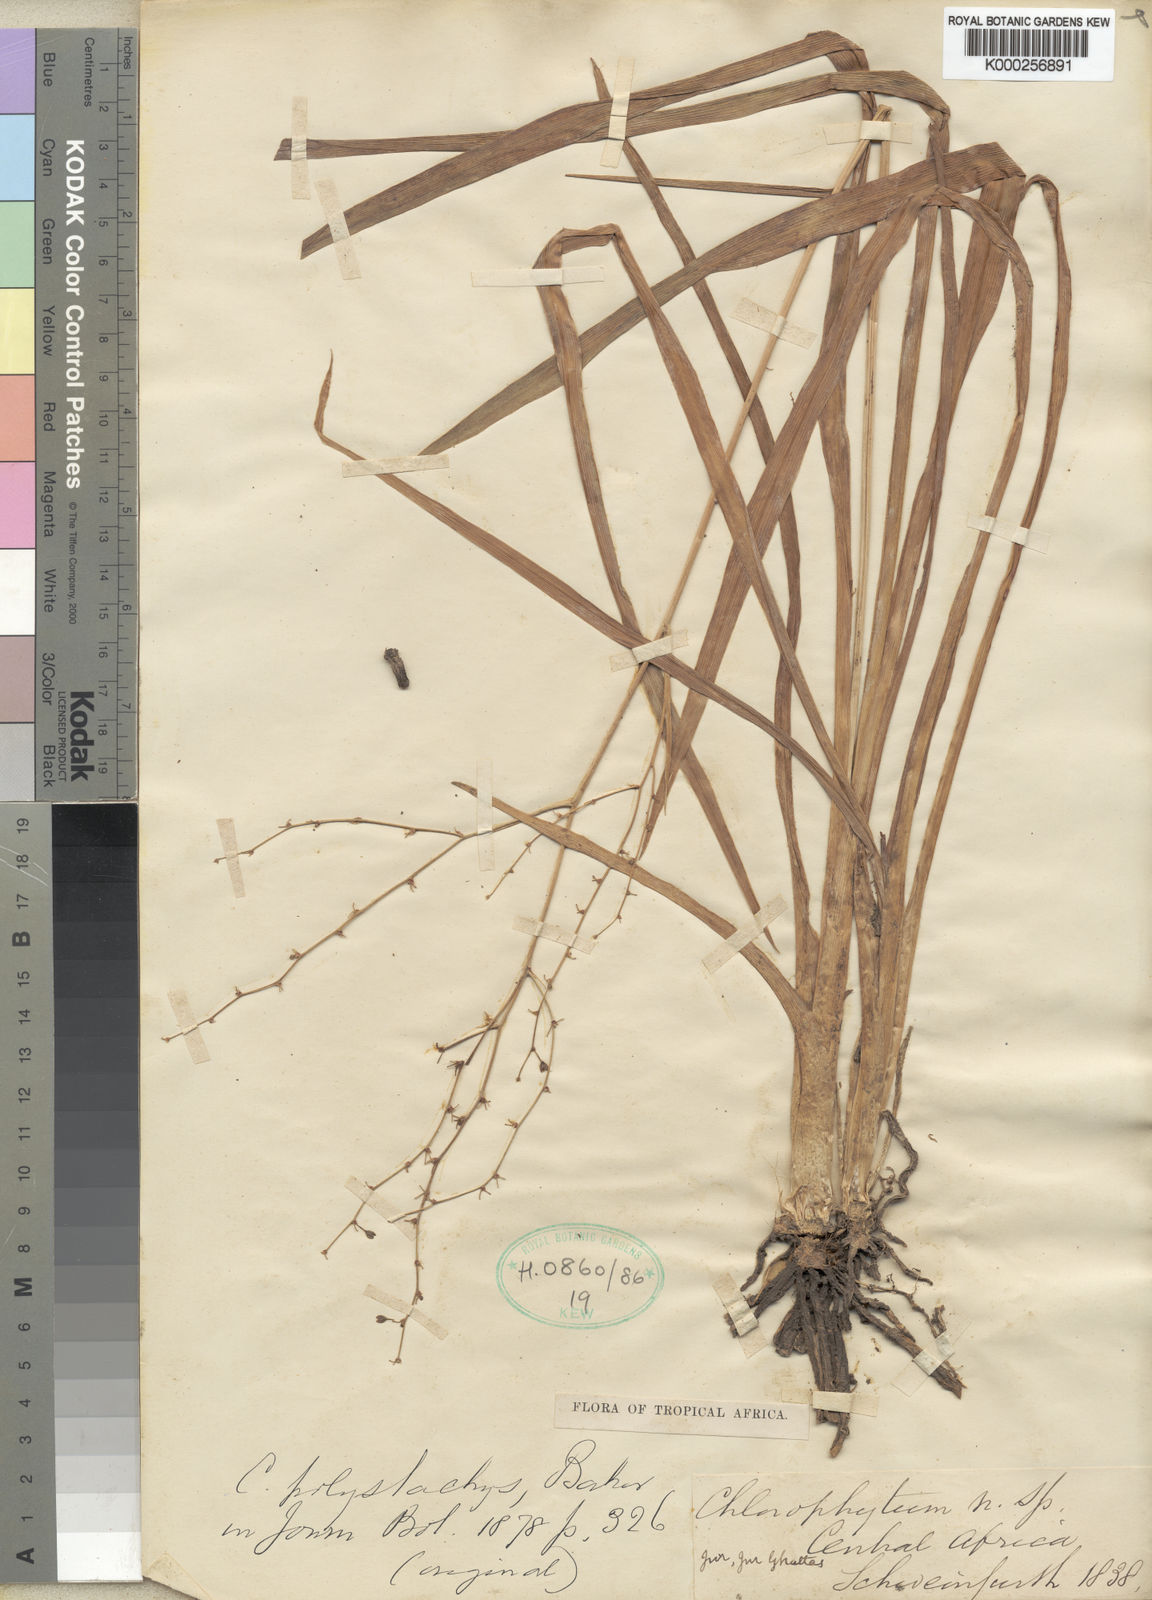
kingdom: Plantae
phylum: Tracheophyta
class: Liliopsida
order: Asparagales
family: Asparagaceae
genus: Chlorophytum
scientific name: Chlorophytum polystachys
